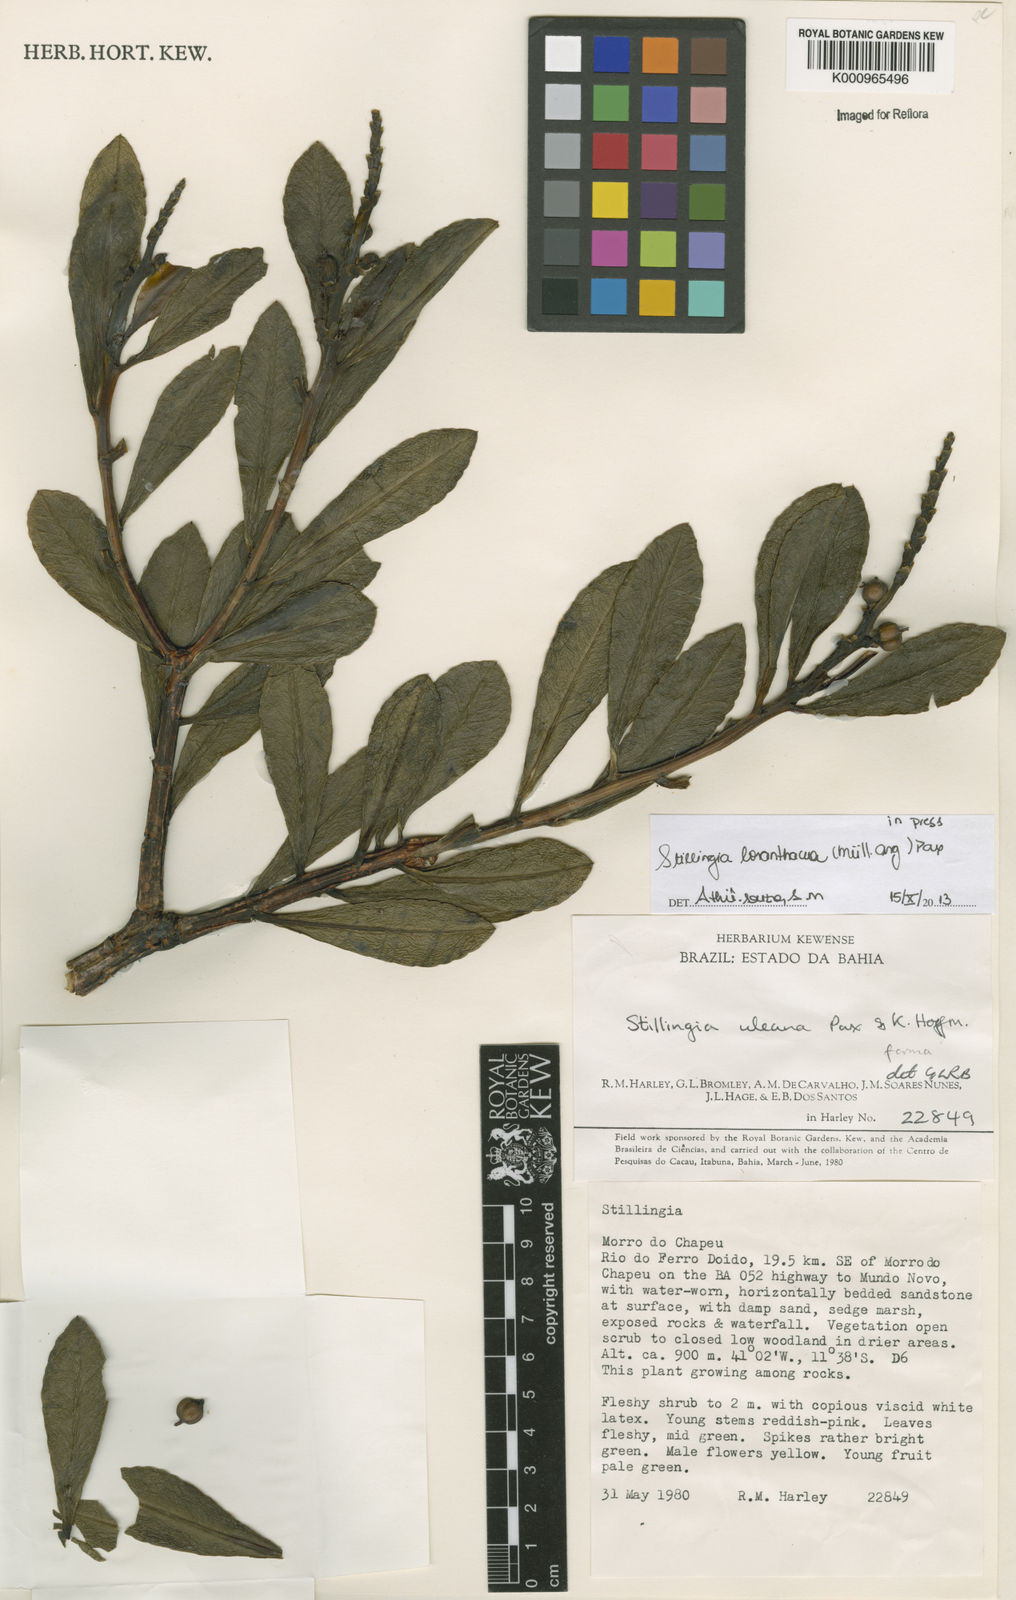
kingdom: Plantae
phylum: Tracheophyta
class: Magnoliopsida
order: Malpighiales
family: Euphorbiaceae
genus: Stillingia
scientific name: Stillingia saxatilis
